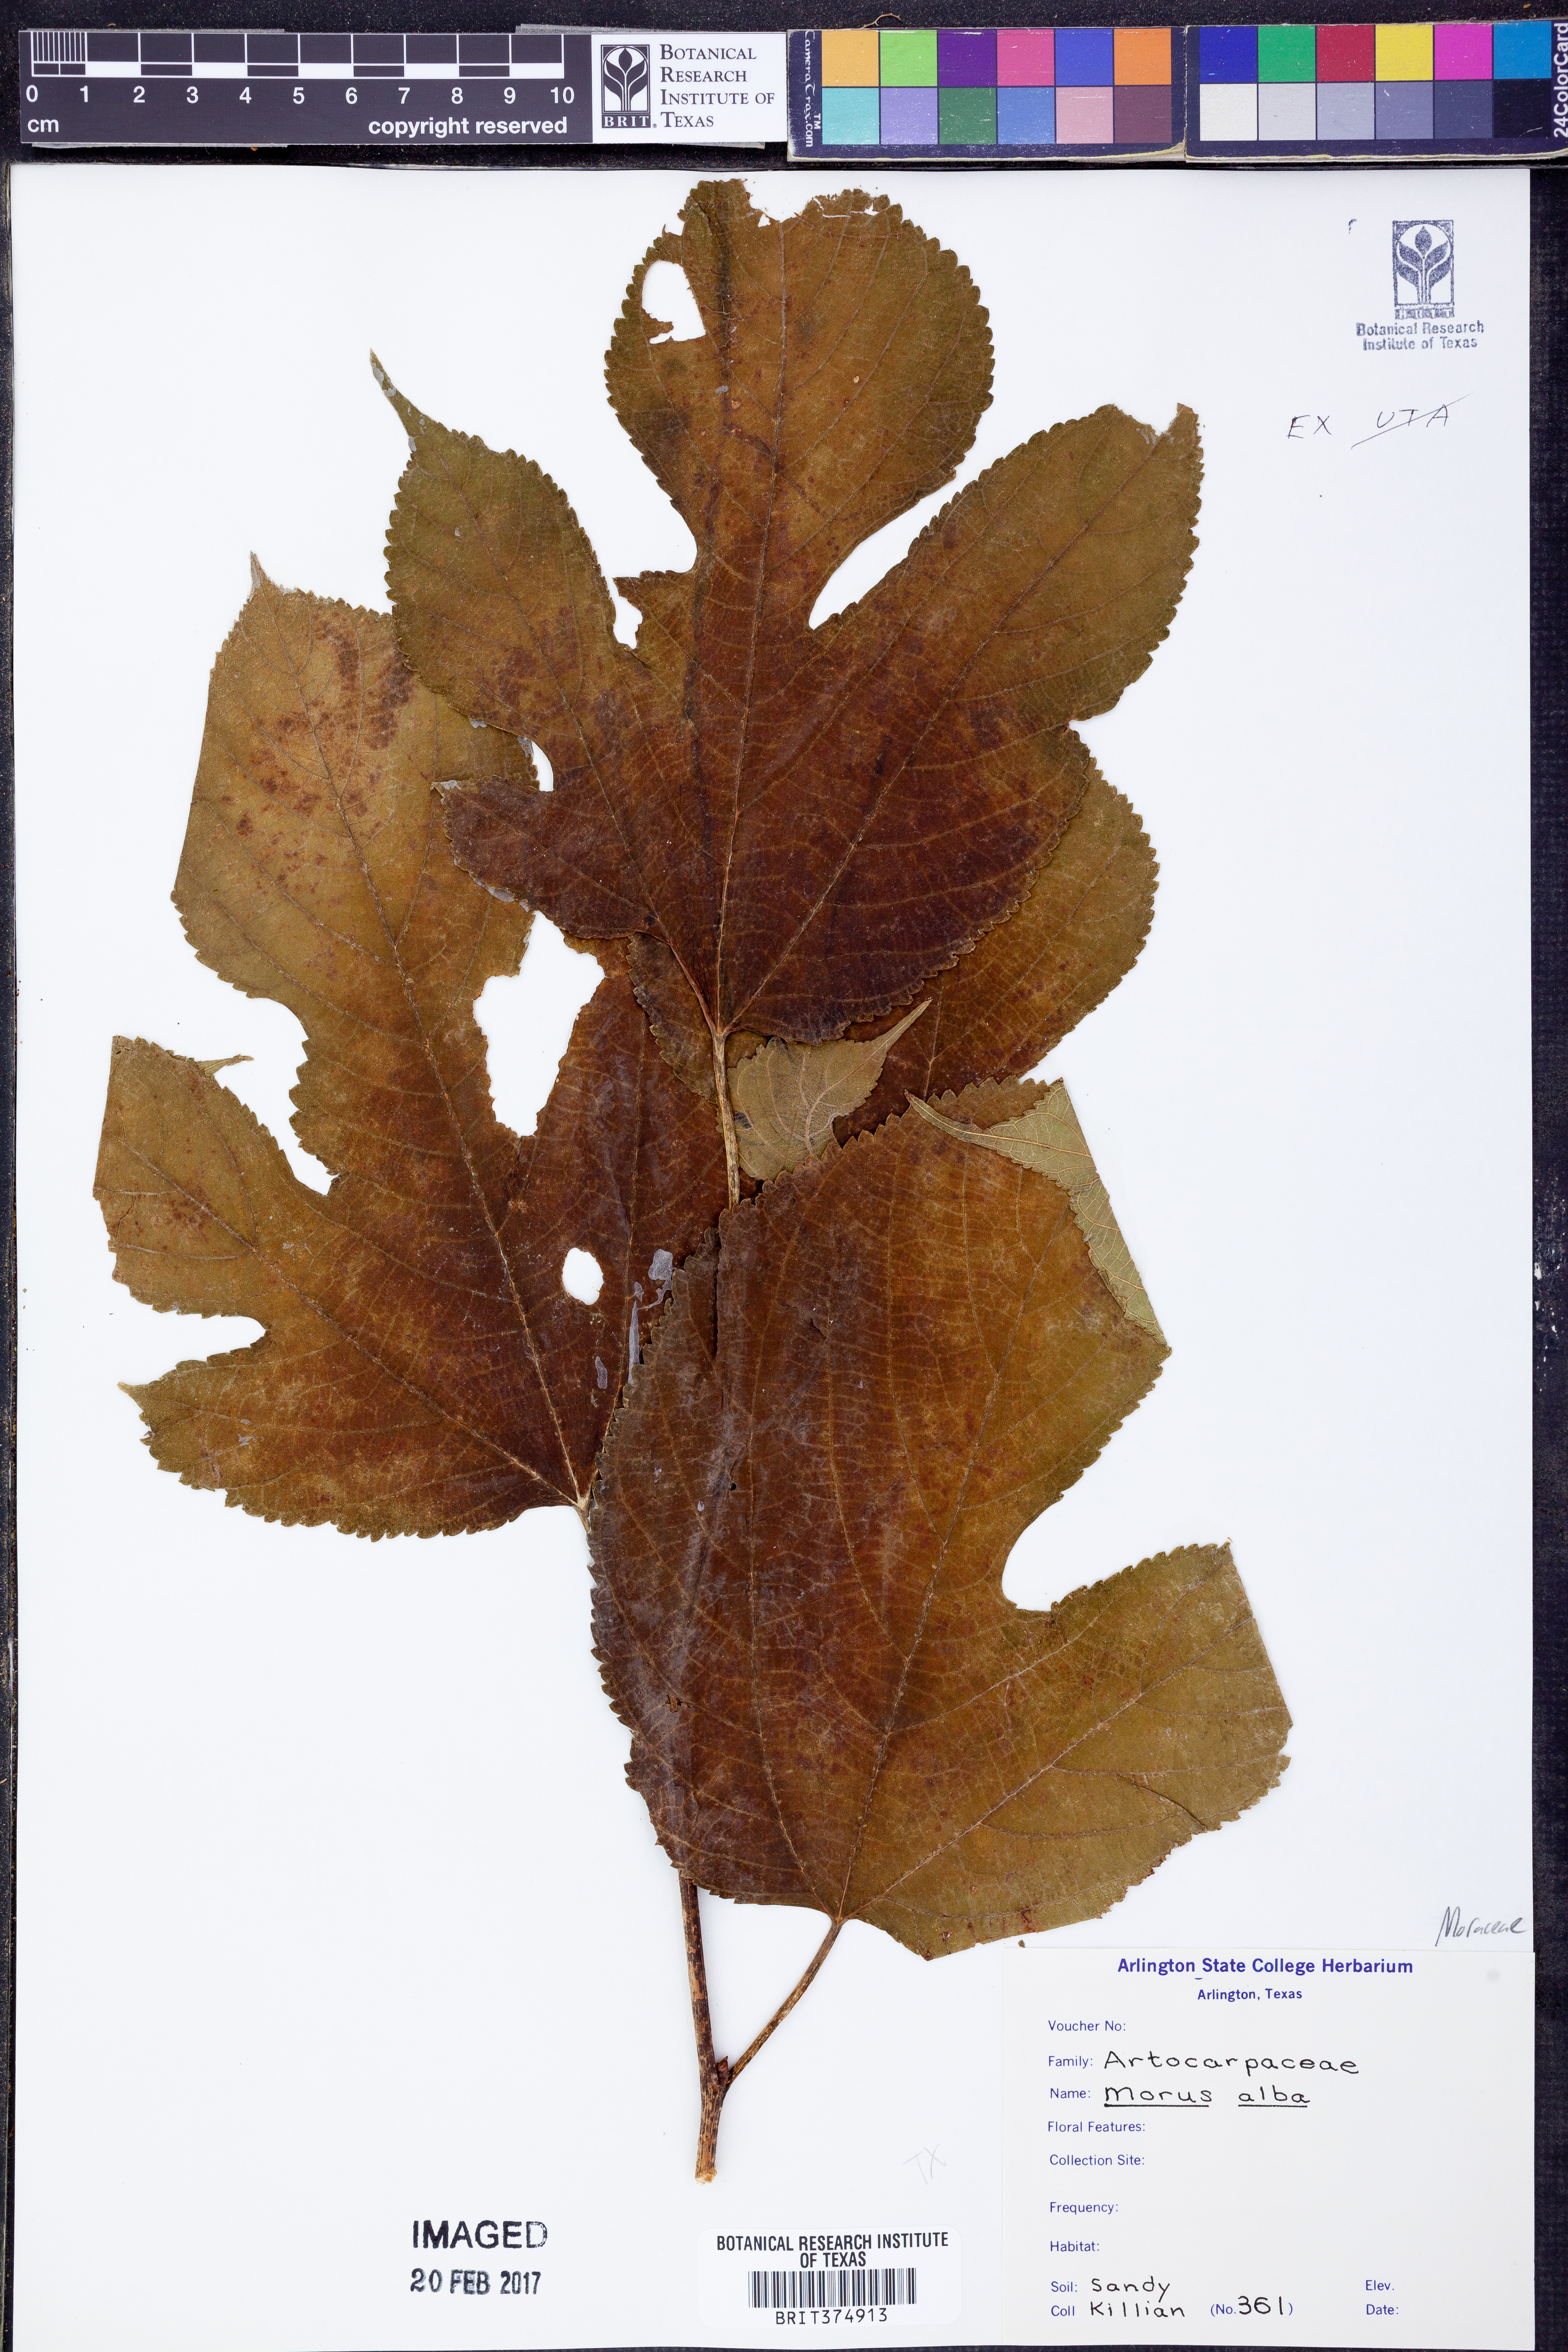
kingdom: Plantae
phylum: Tracheophyta
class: Magnoliopsida
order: Rosales
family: Moraceae
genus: Morus
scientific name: Morus alba
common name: White mulberry
